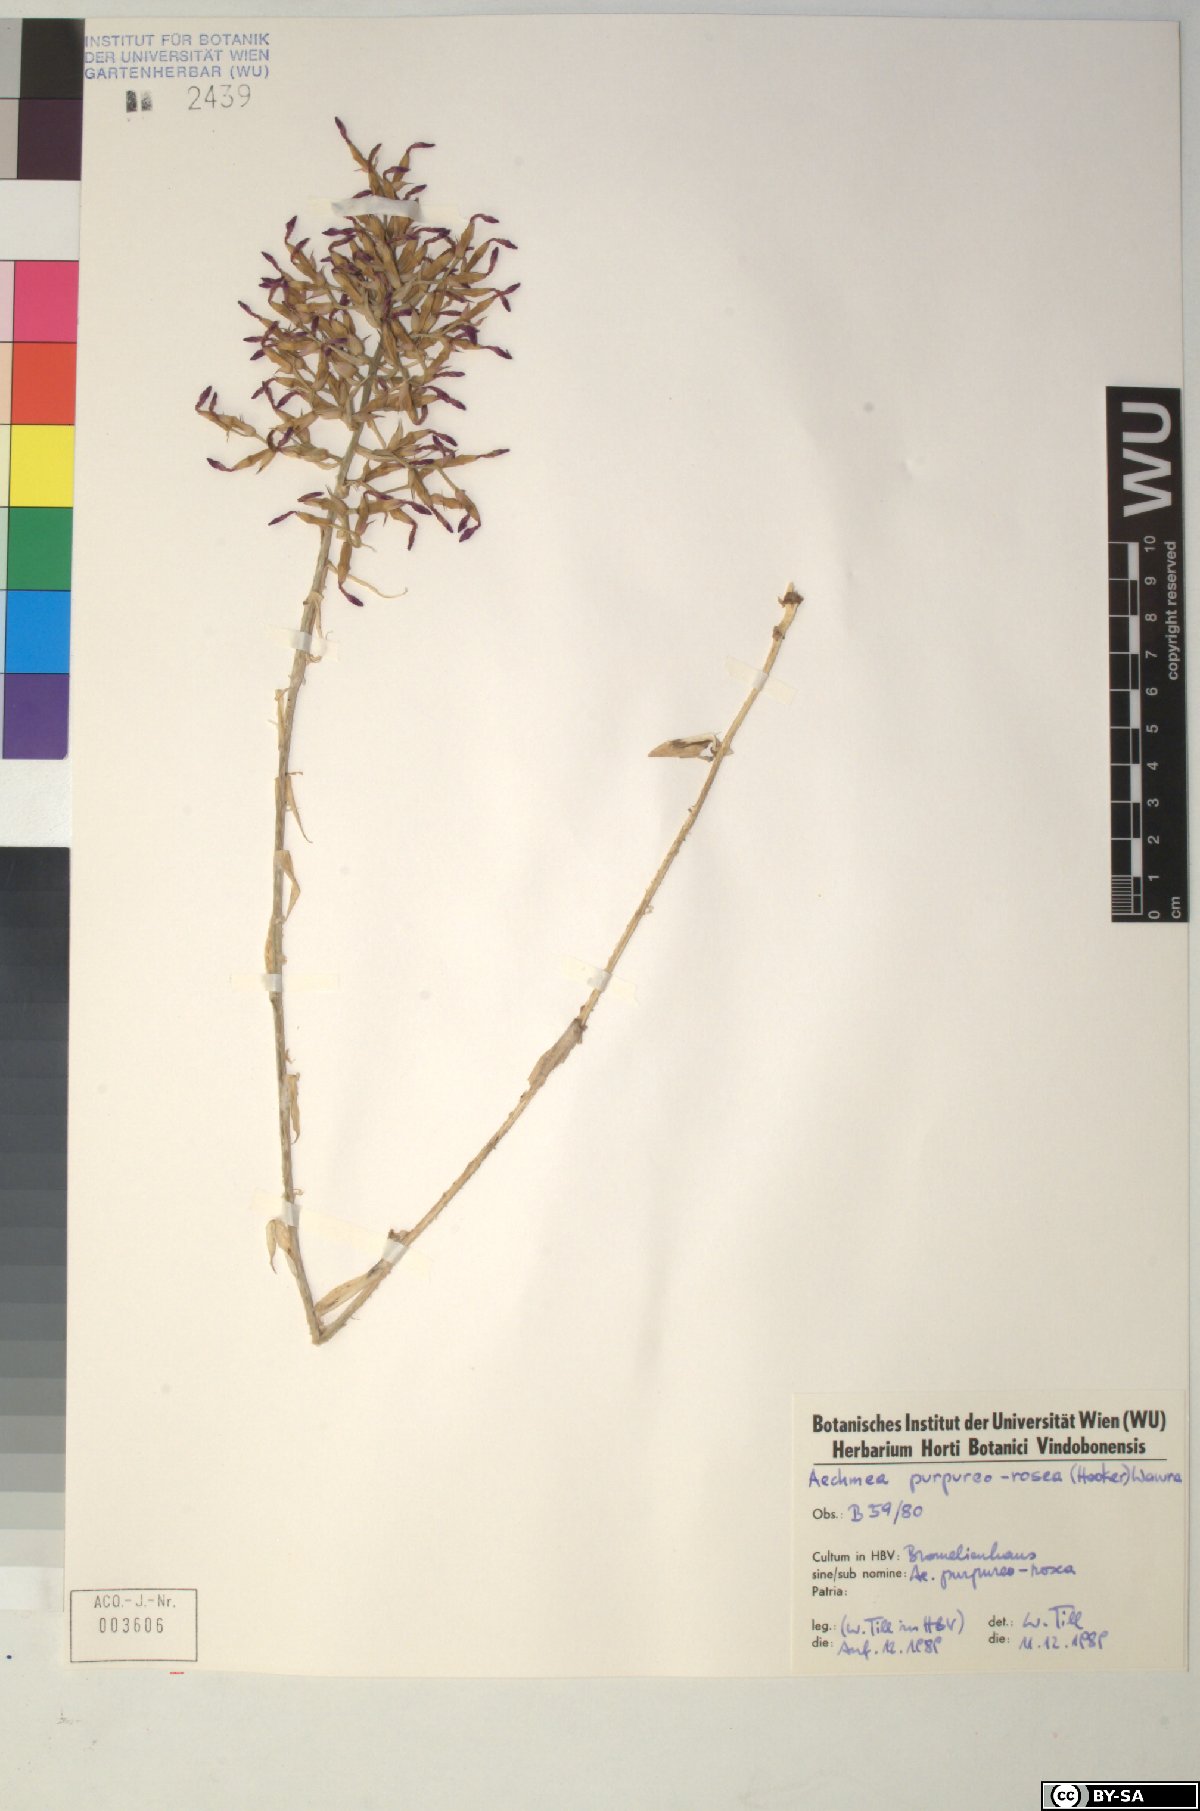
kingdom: Plantae
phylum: Tracheophyta
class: Liliopsida
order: Poales
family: Bromeliaceae
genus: Aechmea
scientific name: Aechmea purpureorosea
